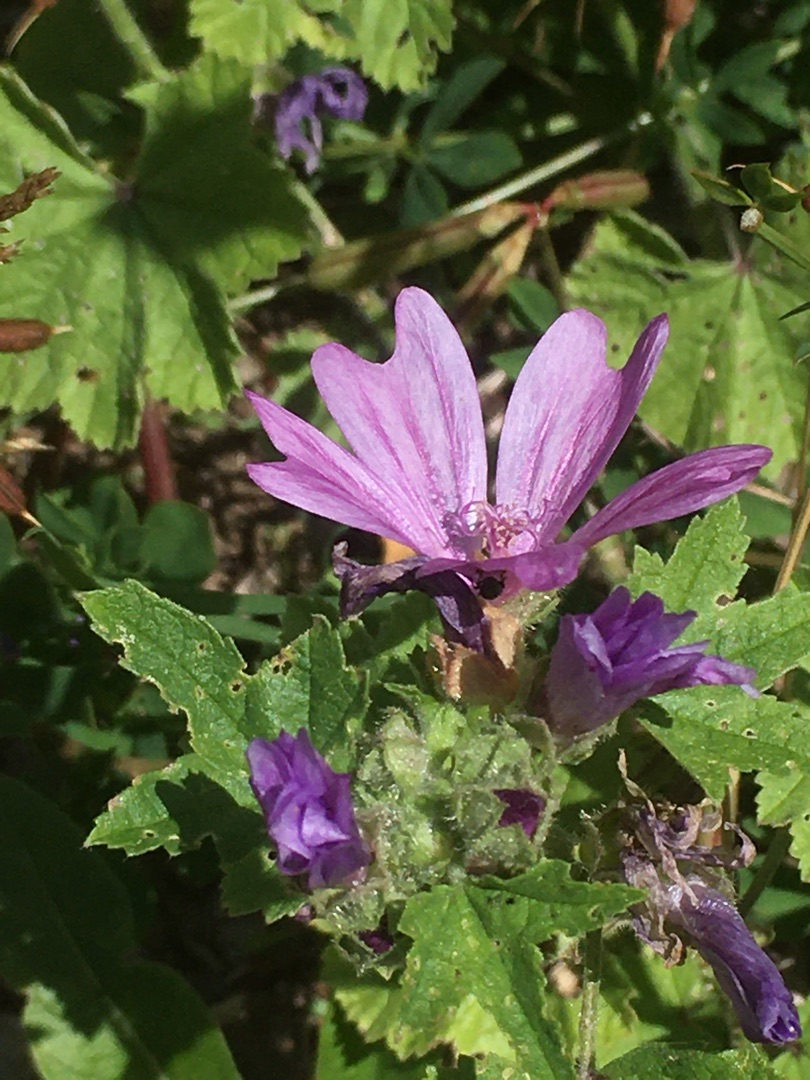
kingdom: Plantae
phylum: Tracheophyta
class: Magnoliopsida
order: Malvales
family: Malvaceae
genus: Malva
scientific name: Malva sylvestris
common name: Almindelig katost
